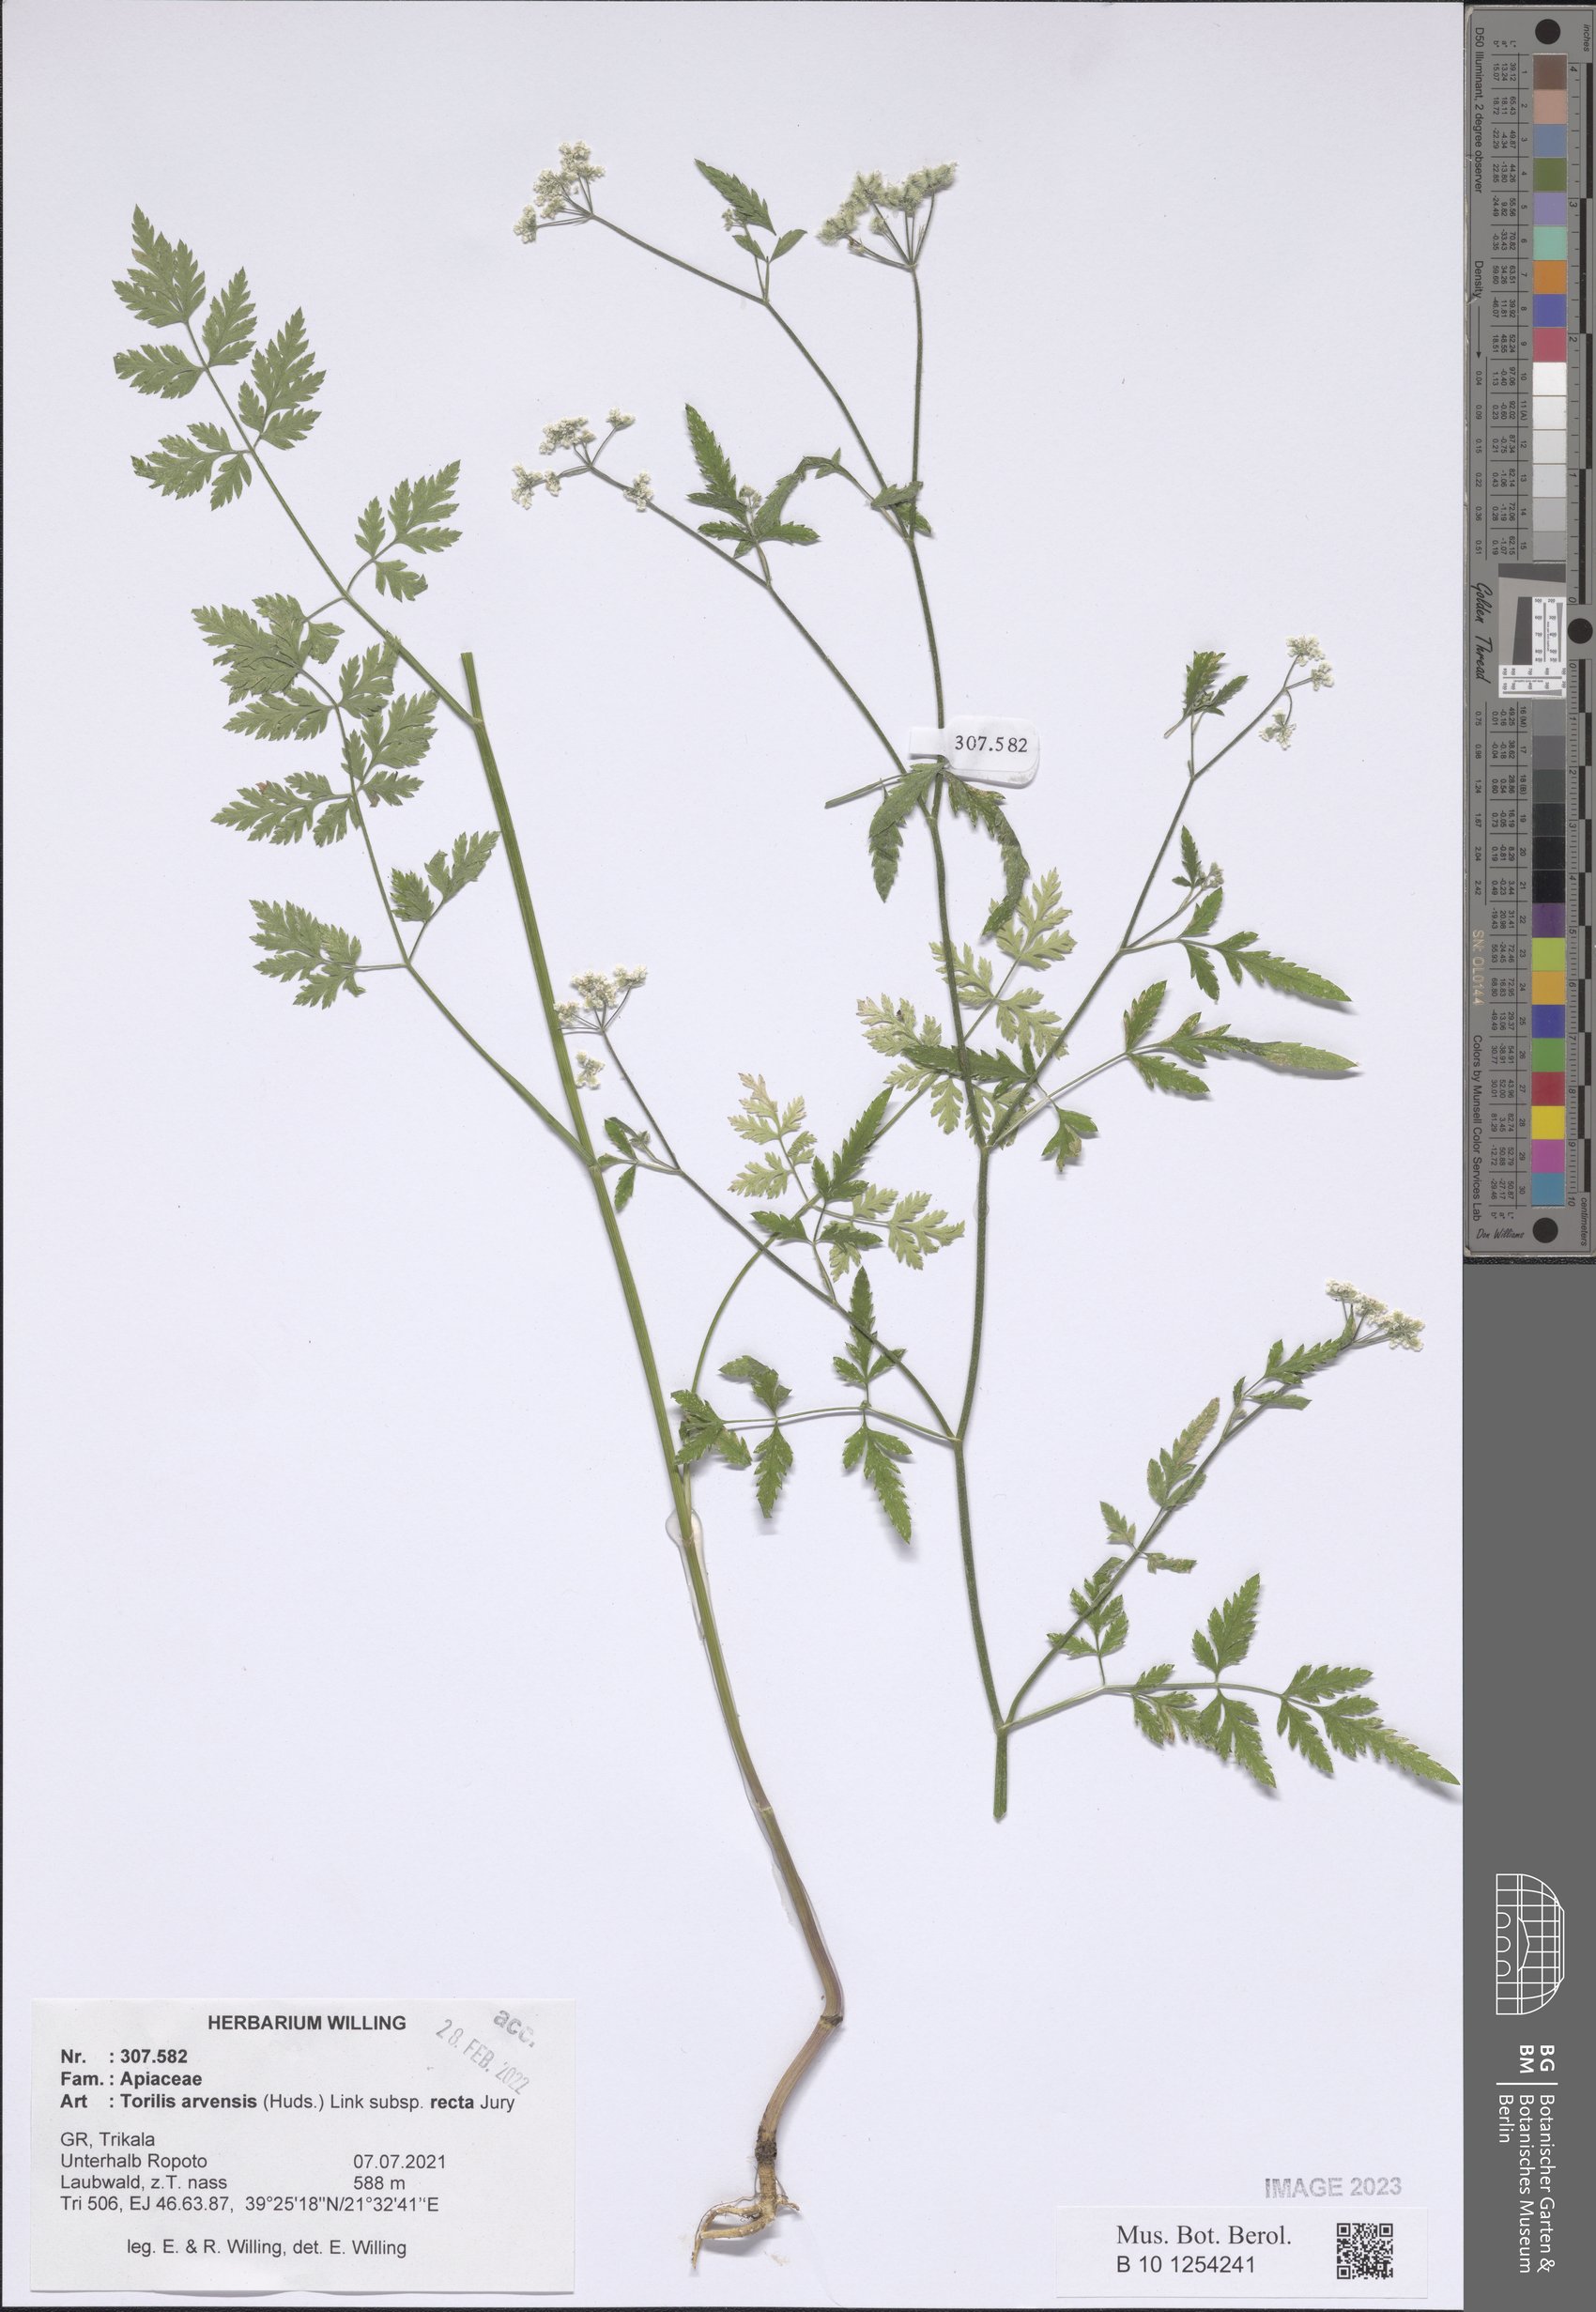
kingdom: Plantae
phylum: Tracheophyta
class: Magnoliopsida
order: Apiales
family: Apiaceae
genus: Torilis
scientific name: Torilis arvensis
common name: Spreading hedge-parsley
